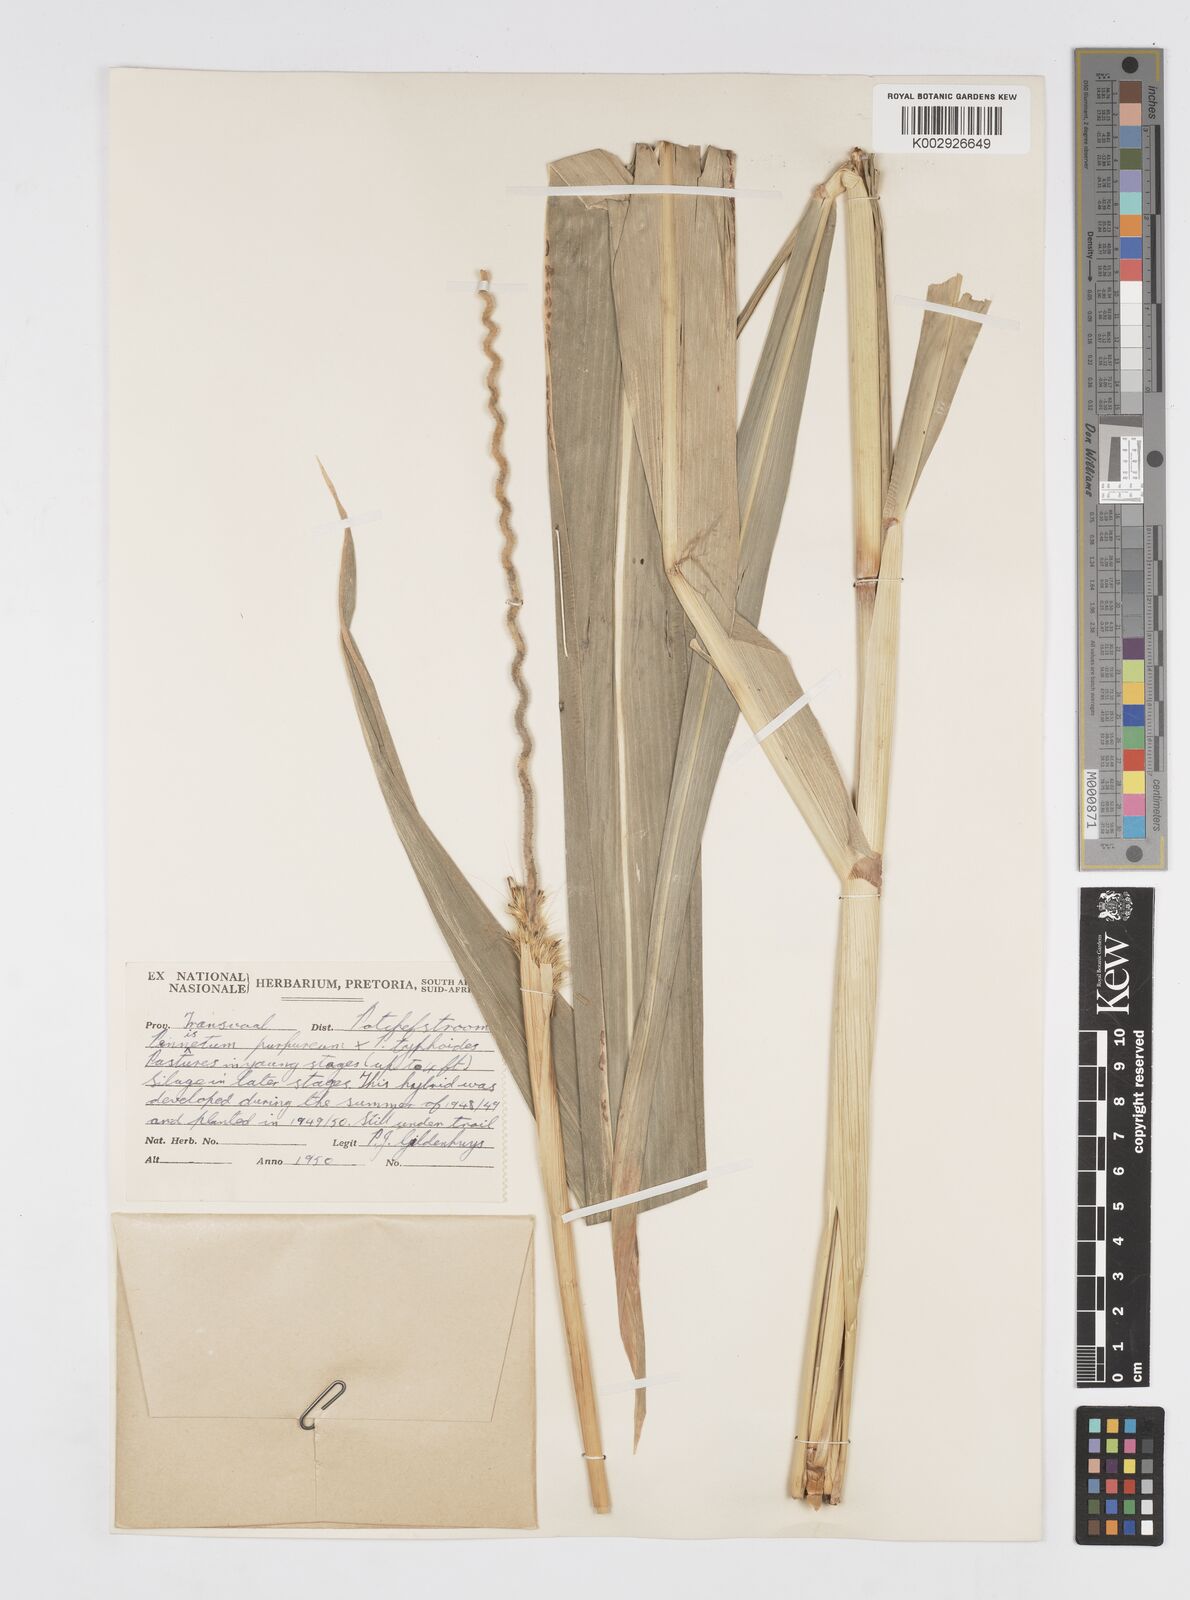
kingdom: Plantae
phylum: Tracheophyta
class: Liliopsida
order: Poales
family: Poaceae
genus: Cenchrus
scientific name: Cenchrus purpureus
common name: Elephant grass
